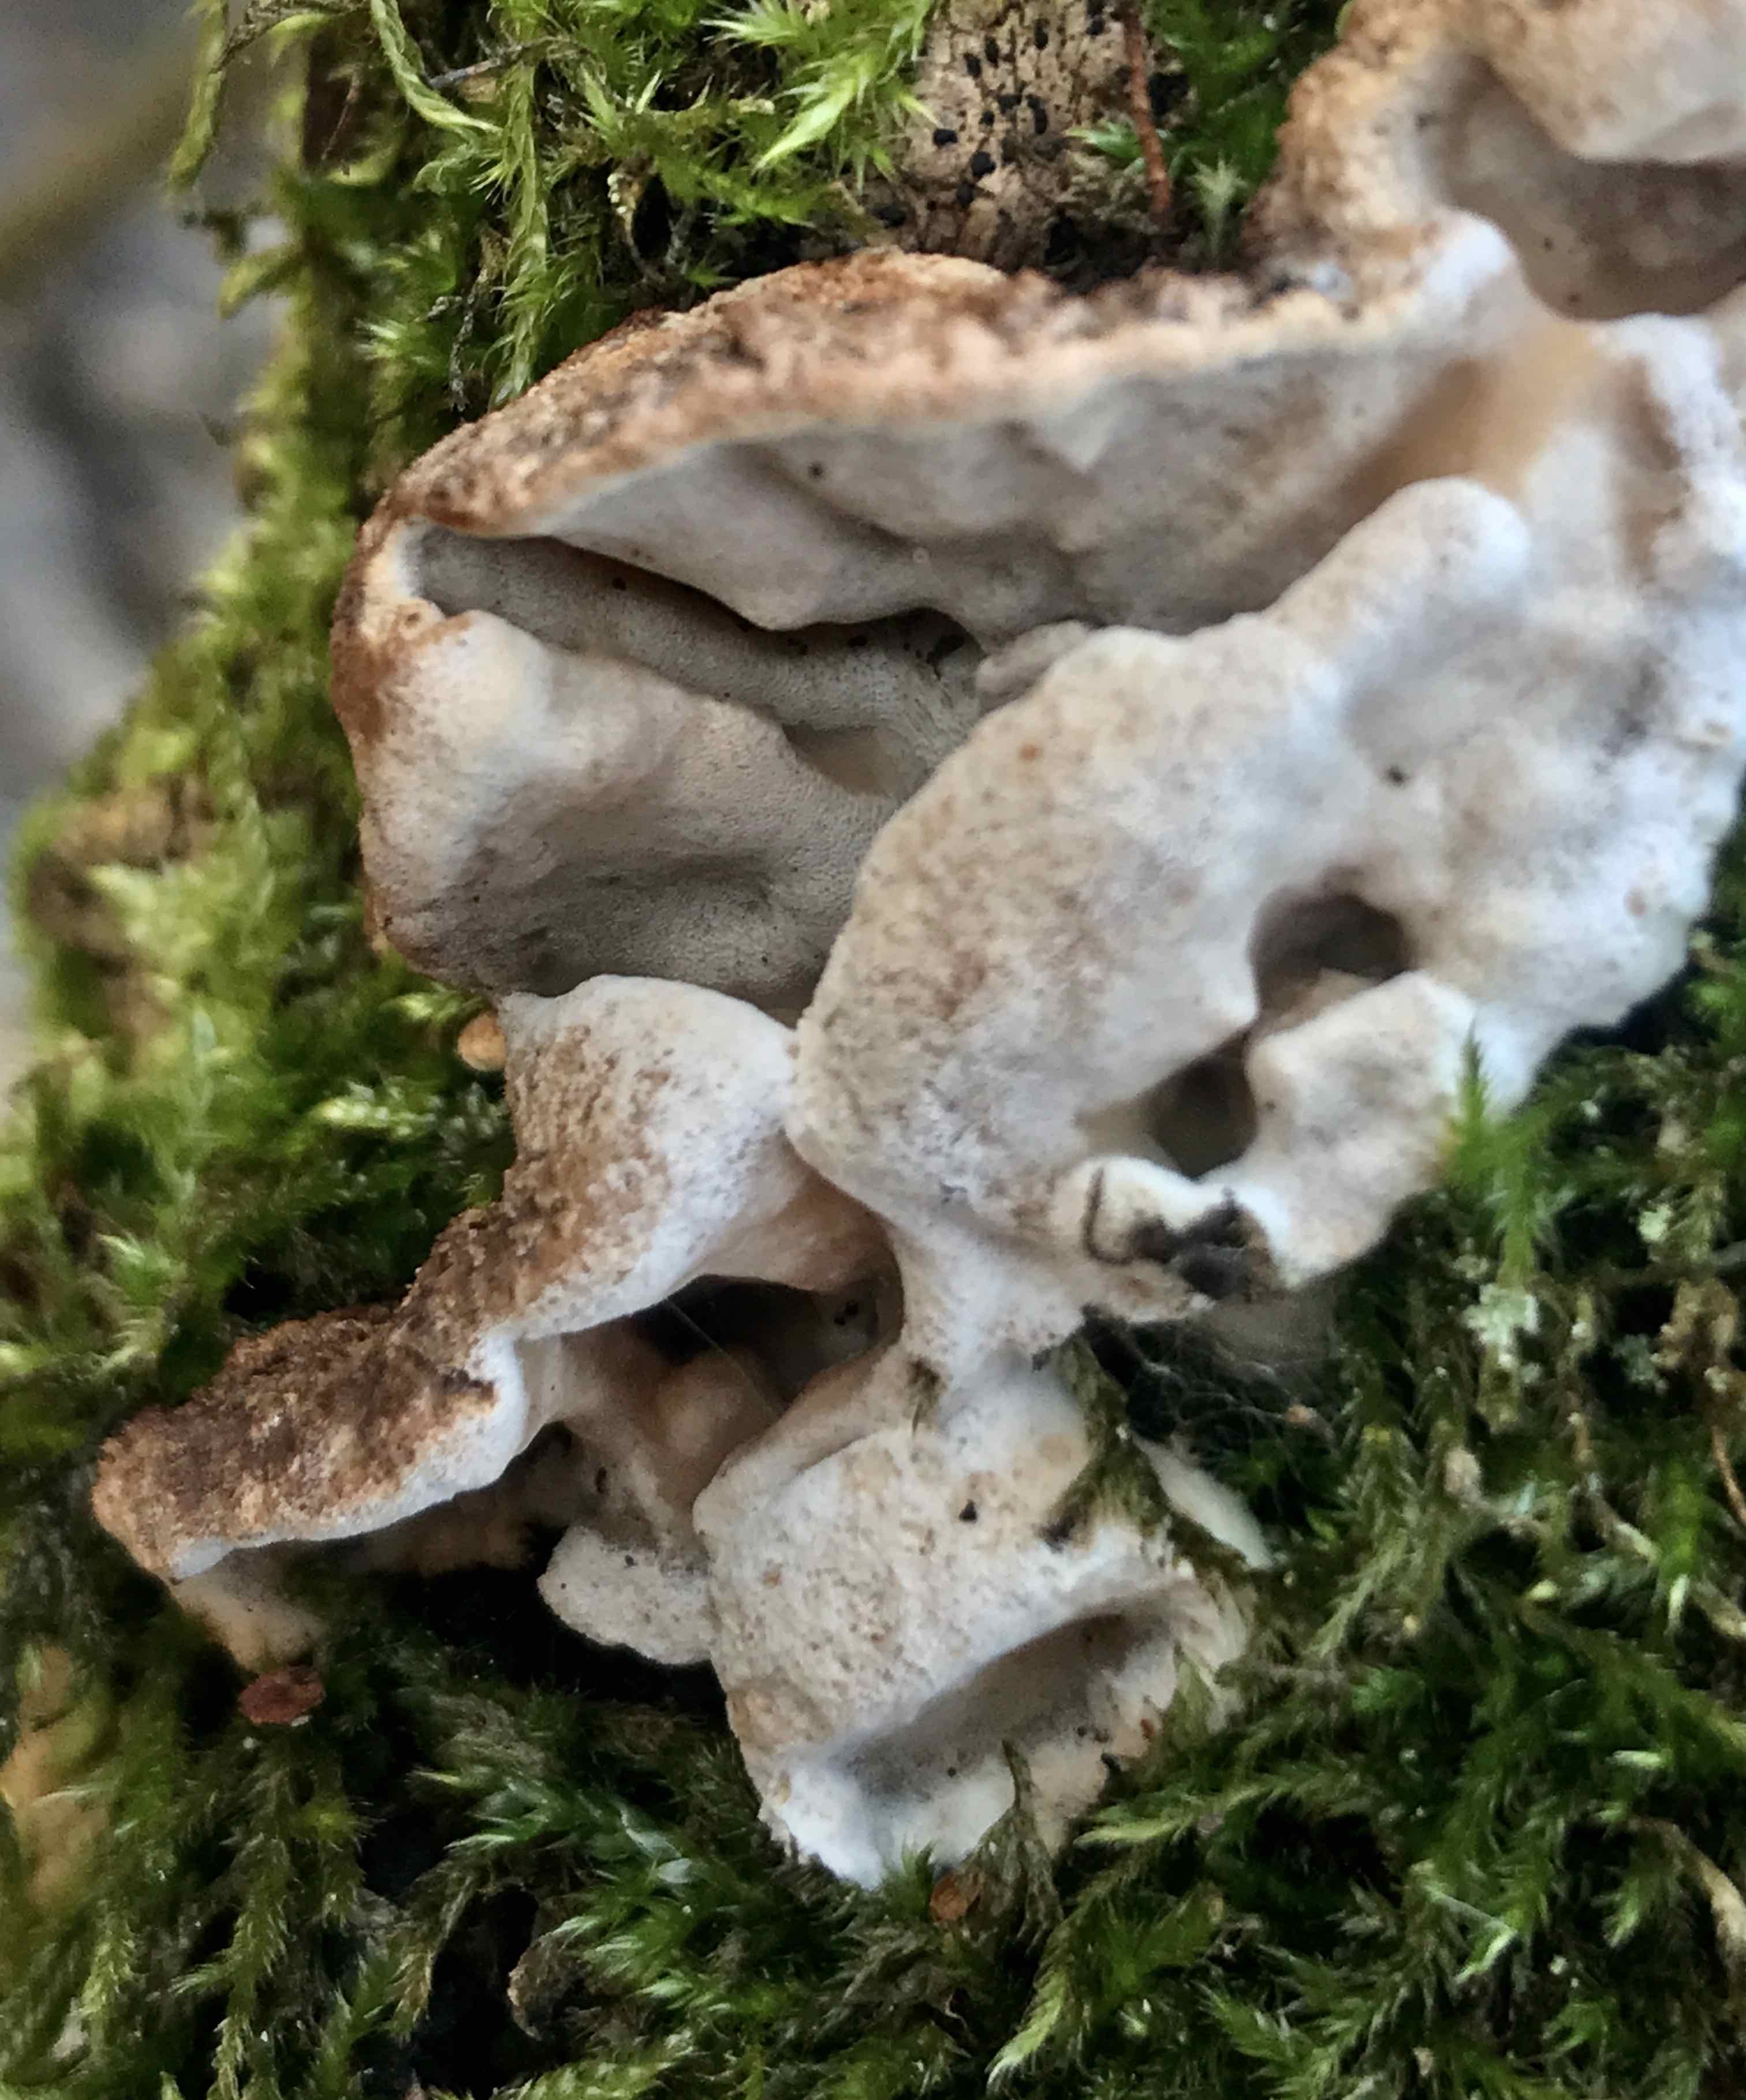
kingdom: Fungi
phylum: Basidiomycota
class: Agaricomycetes
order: Polyporales
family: Incrustoporiaceae
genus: Skeletocutis
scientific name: Skeletocutis nemoralis
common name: stor krystalporesvamp
